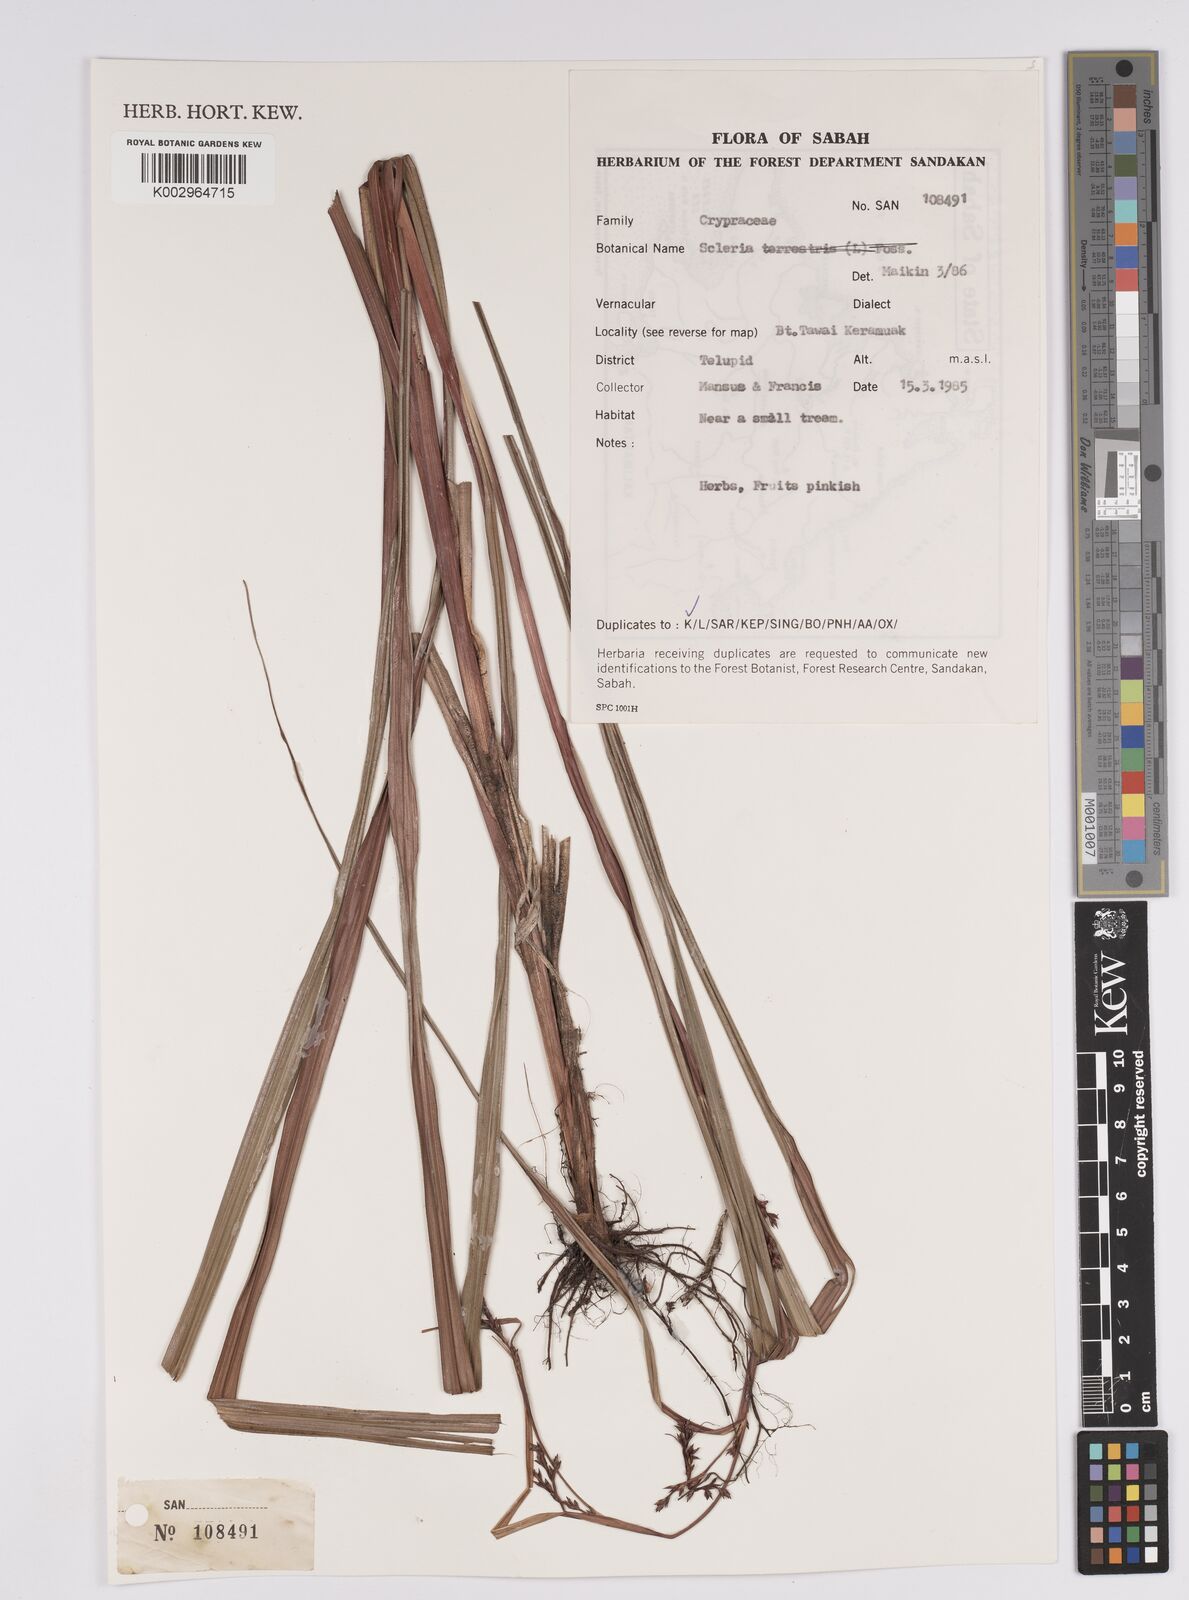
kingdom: Plantae
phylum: Tracheophyta
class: Liliopsida
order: Poales
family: Cyperaceae
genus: Scleria
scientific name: Scleria
